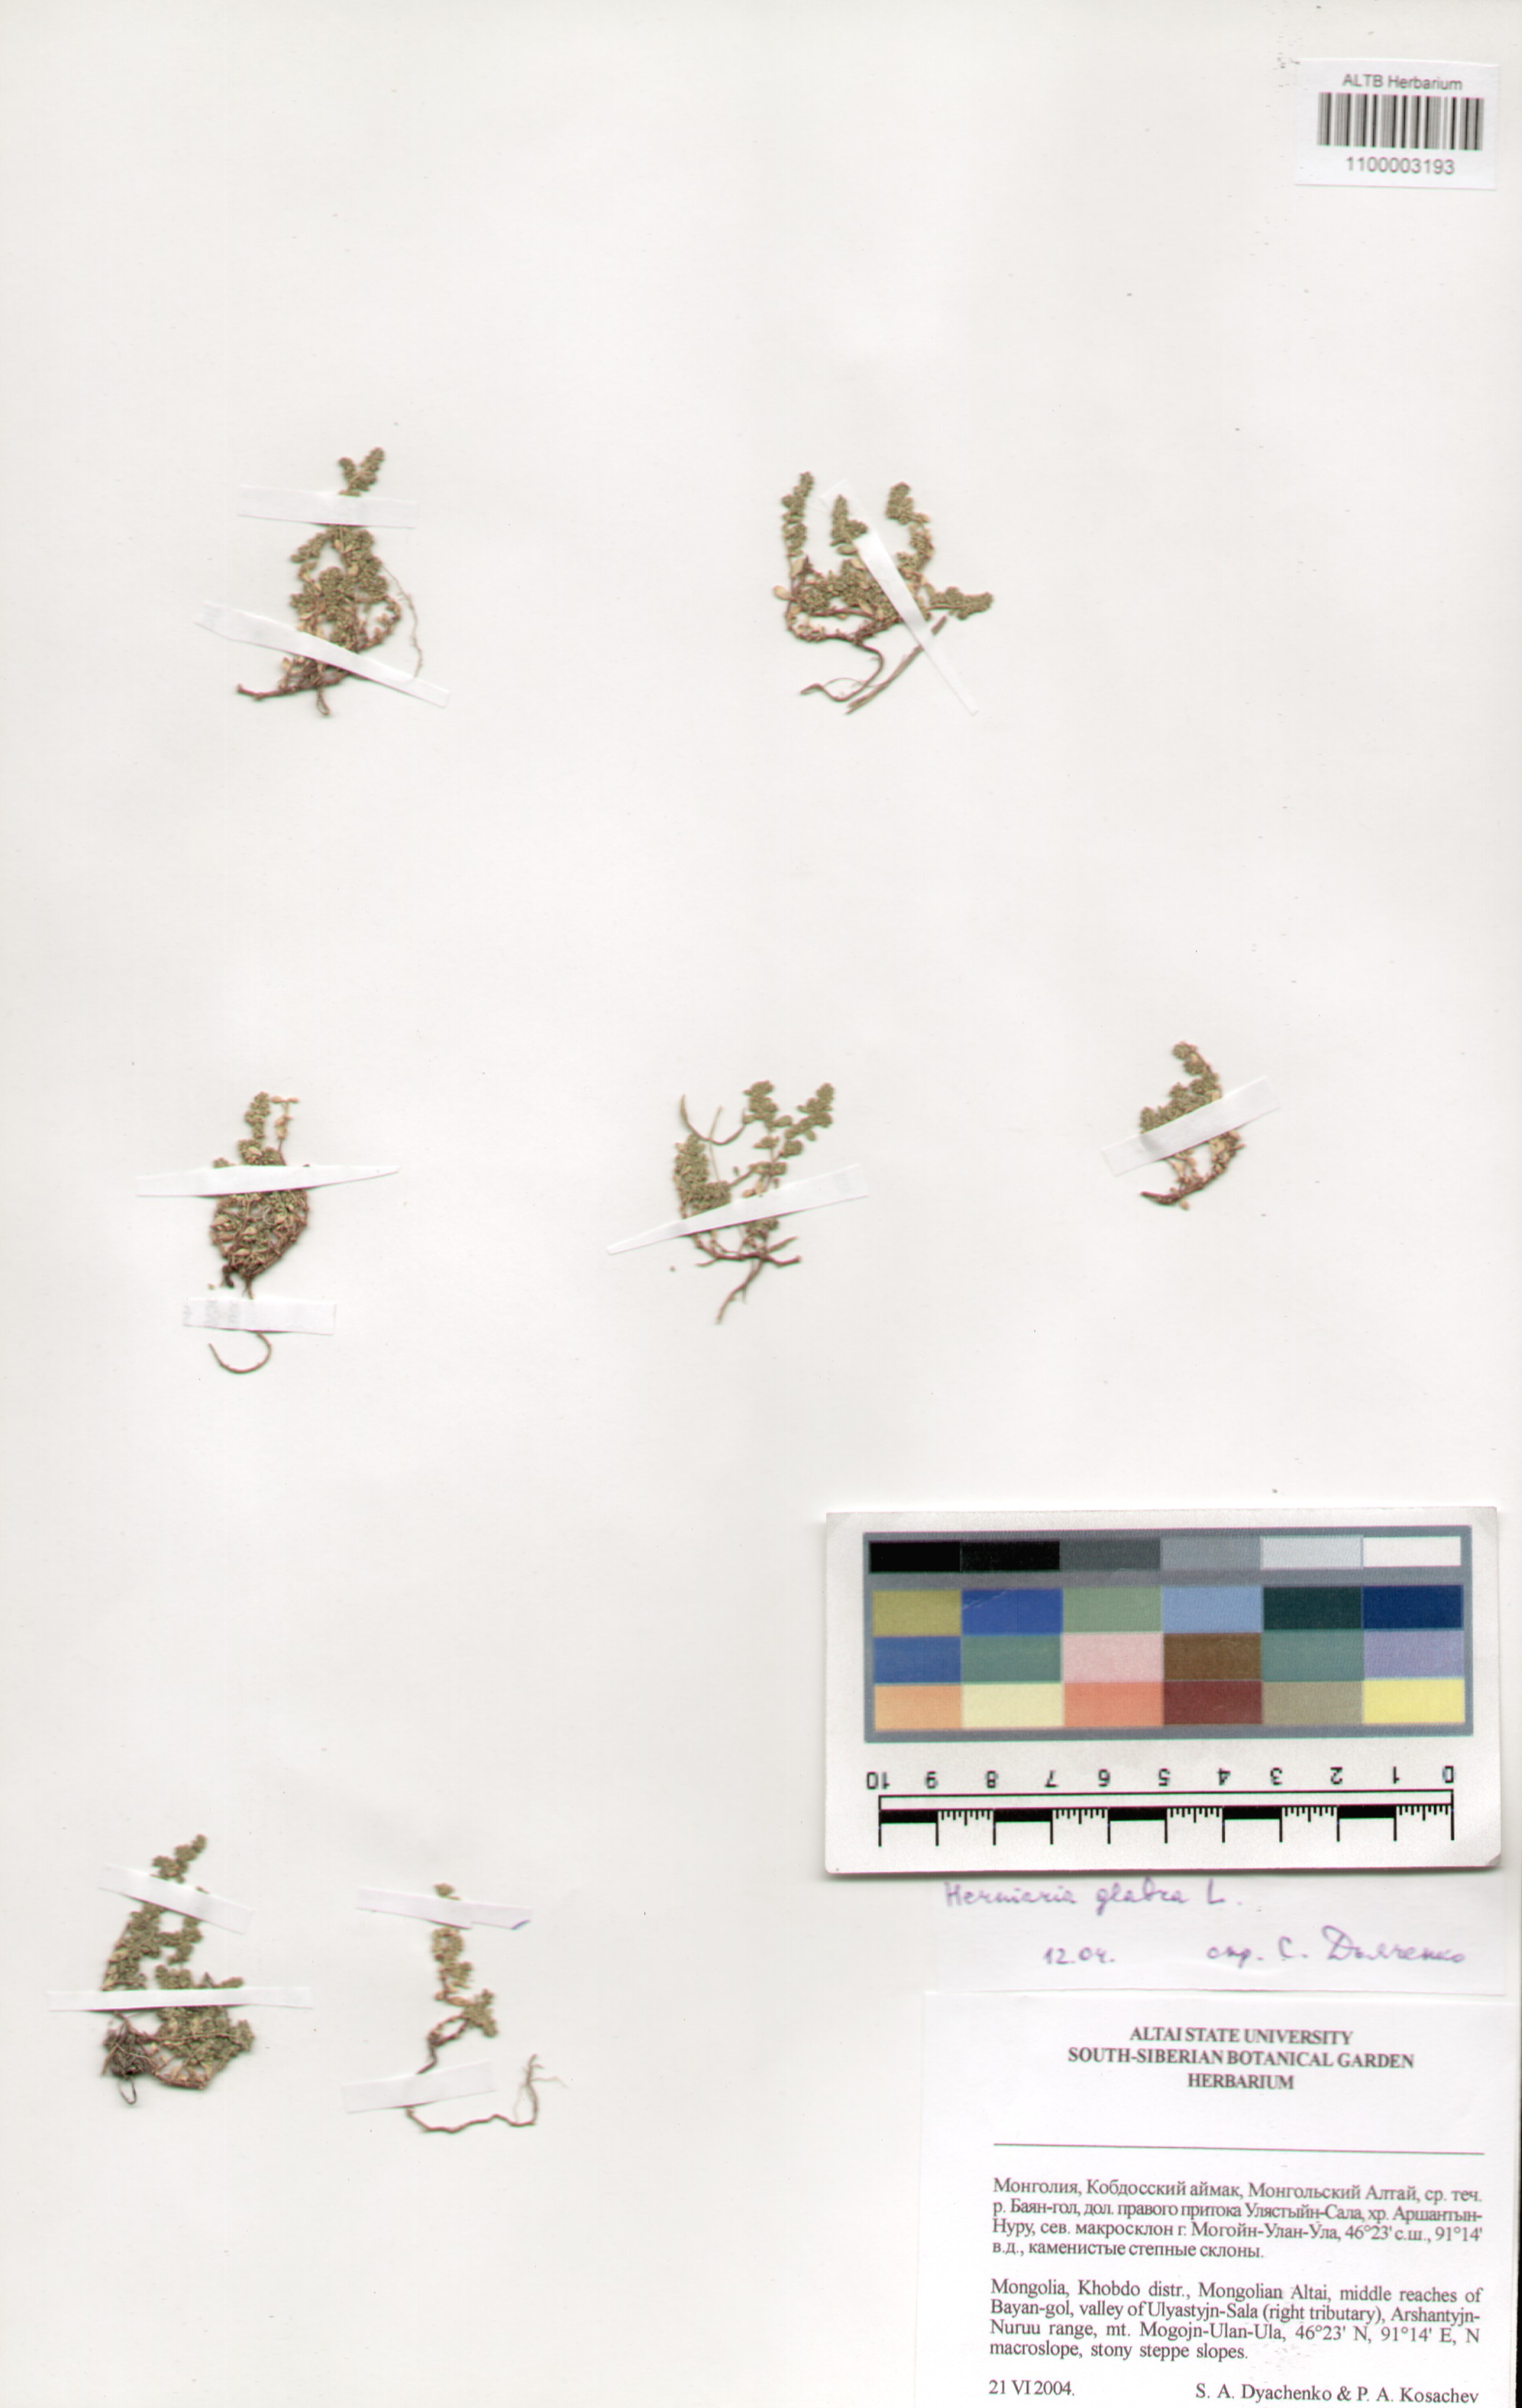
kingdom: Plantae
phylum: Tracheophyta
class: Magnoliopsida
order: Caryophyllales
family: Caryophyllaceae
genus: Herniaria
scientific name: Herniaria glabra
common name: Smooth rupturewort
